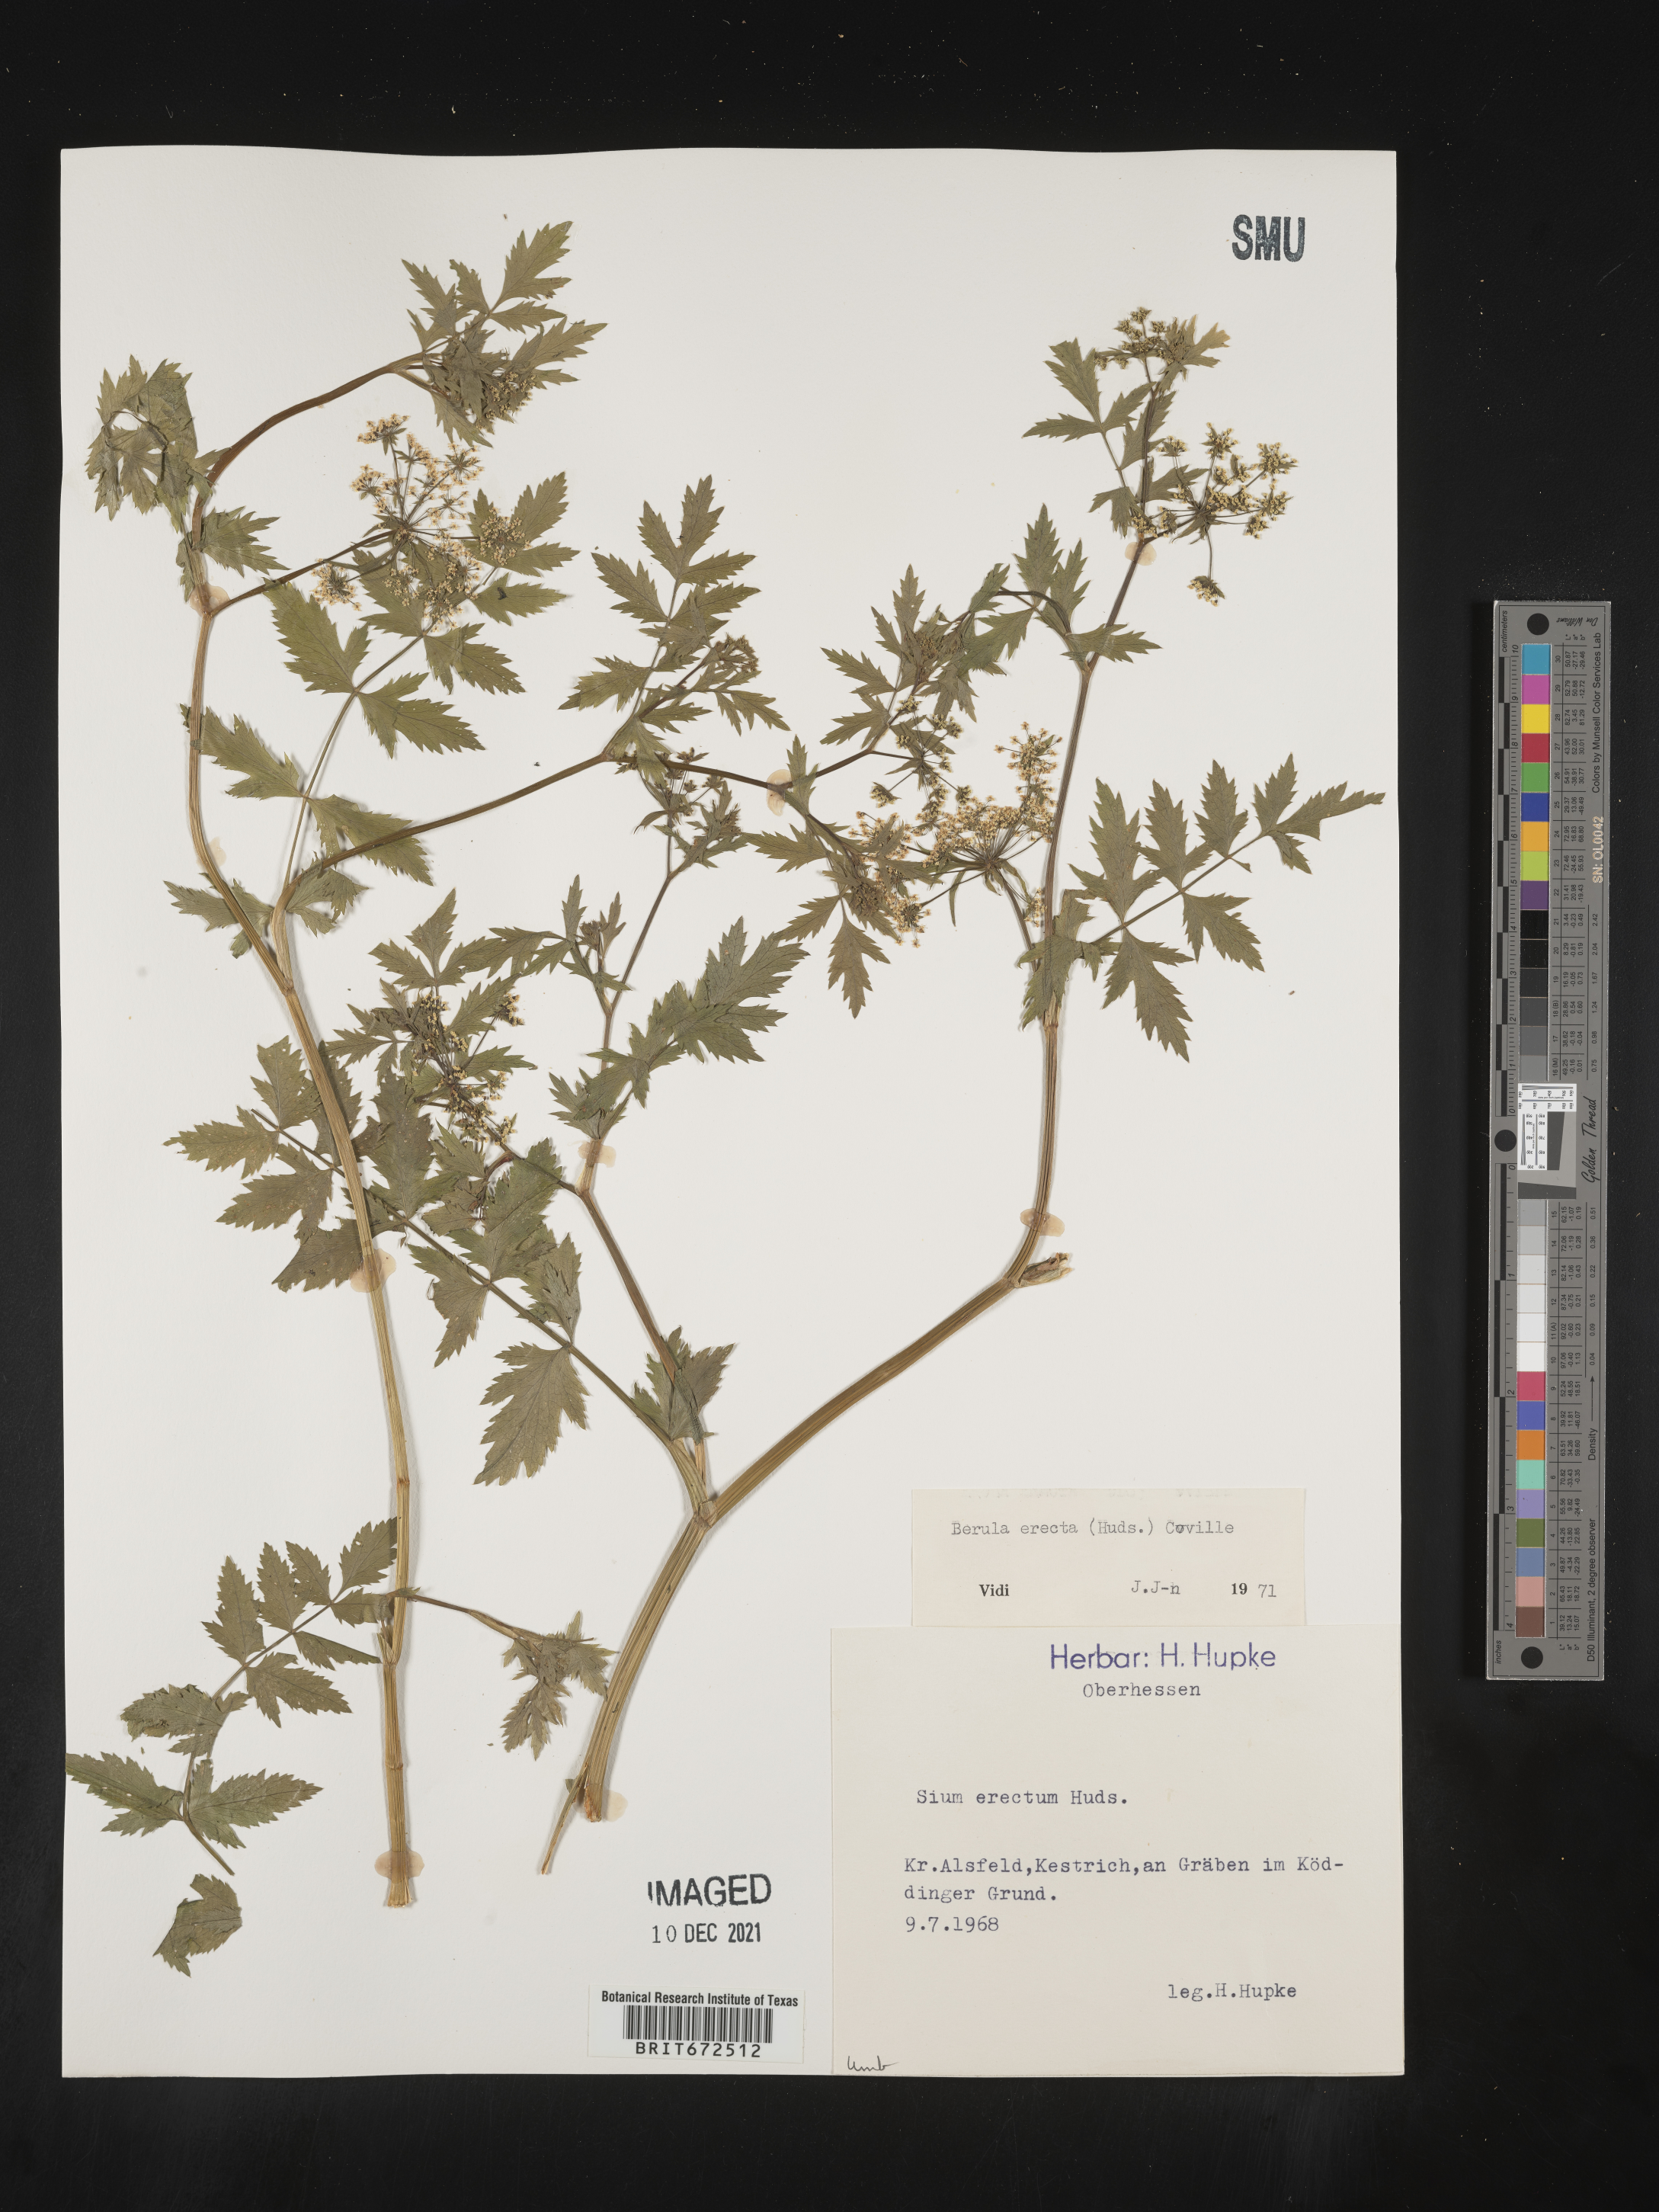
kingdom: Plantae
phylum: Tracheophyta
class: Magnoliopsida
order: Apiales
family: Apiaceae
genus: Sium
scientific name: Sium
